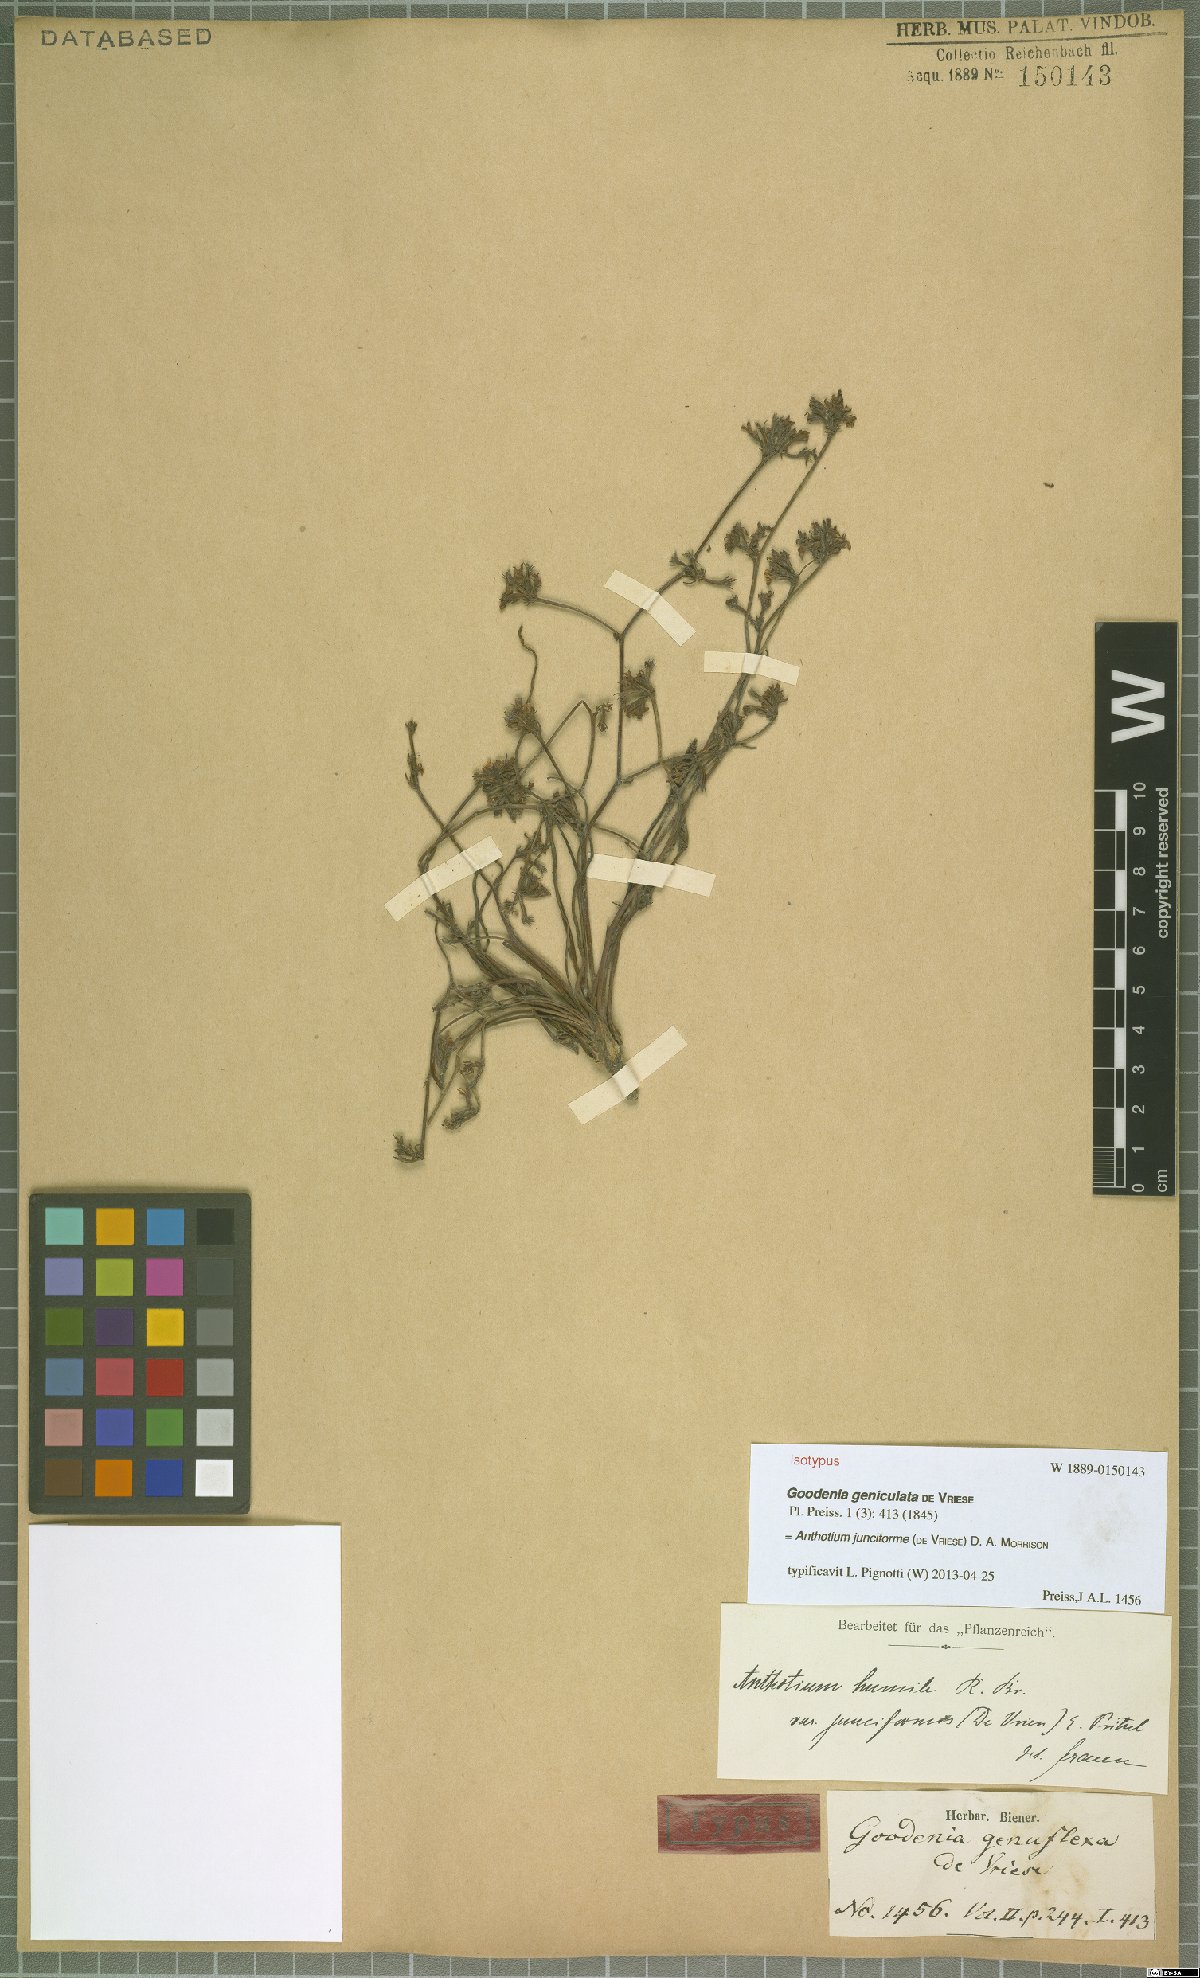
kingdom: Plantae
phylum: Tracheophyta
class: Magnoliopsida
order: Asterales
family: Goodeniaceae
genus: Anthotium
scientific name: Anthotium junciforme
